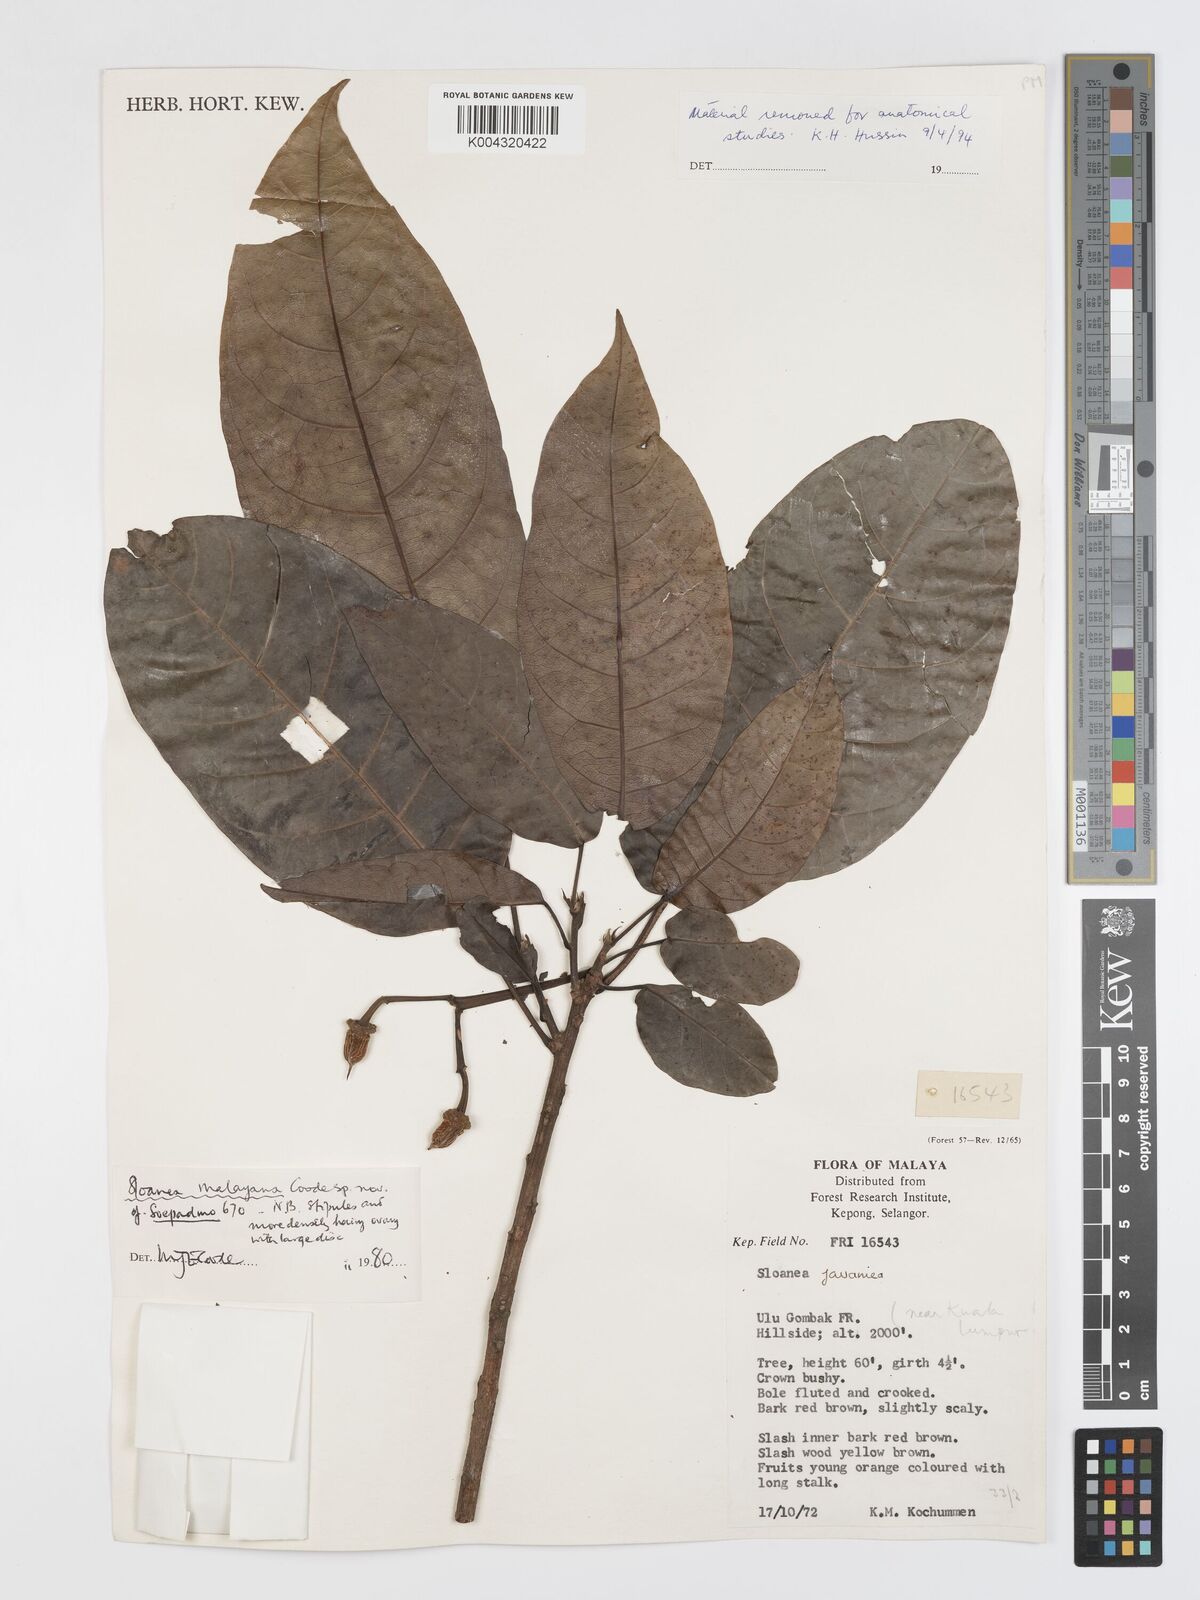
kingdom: Plantae
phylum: Tracheophyta
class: Magnoliopsida
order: Oxalidales
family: Elaeocarpaceae
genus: Sloanea
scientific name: Sloanea malayana
